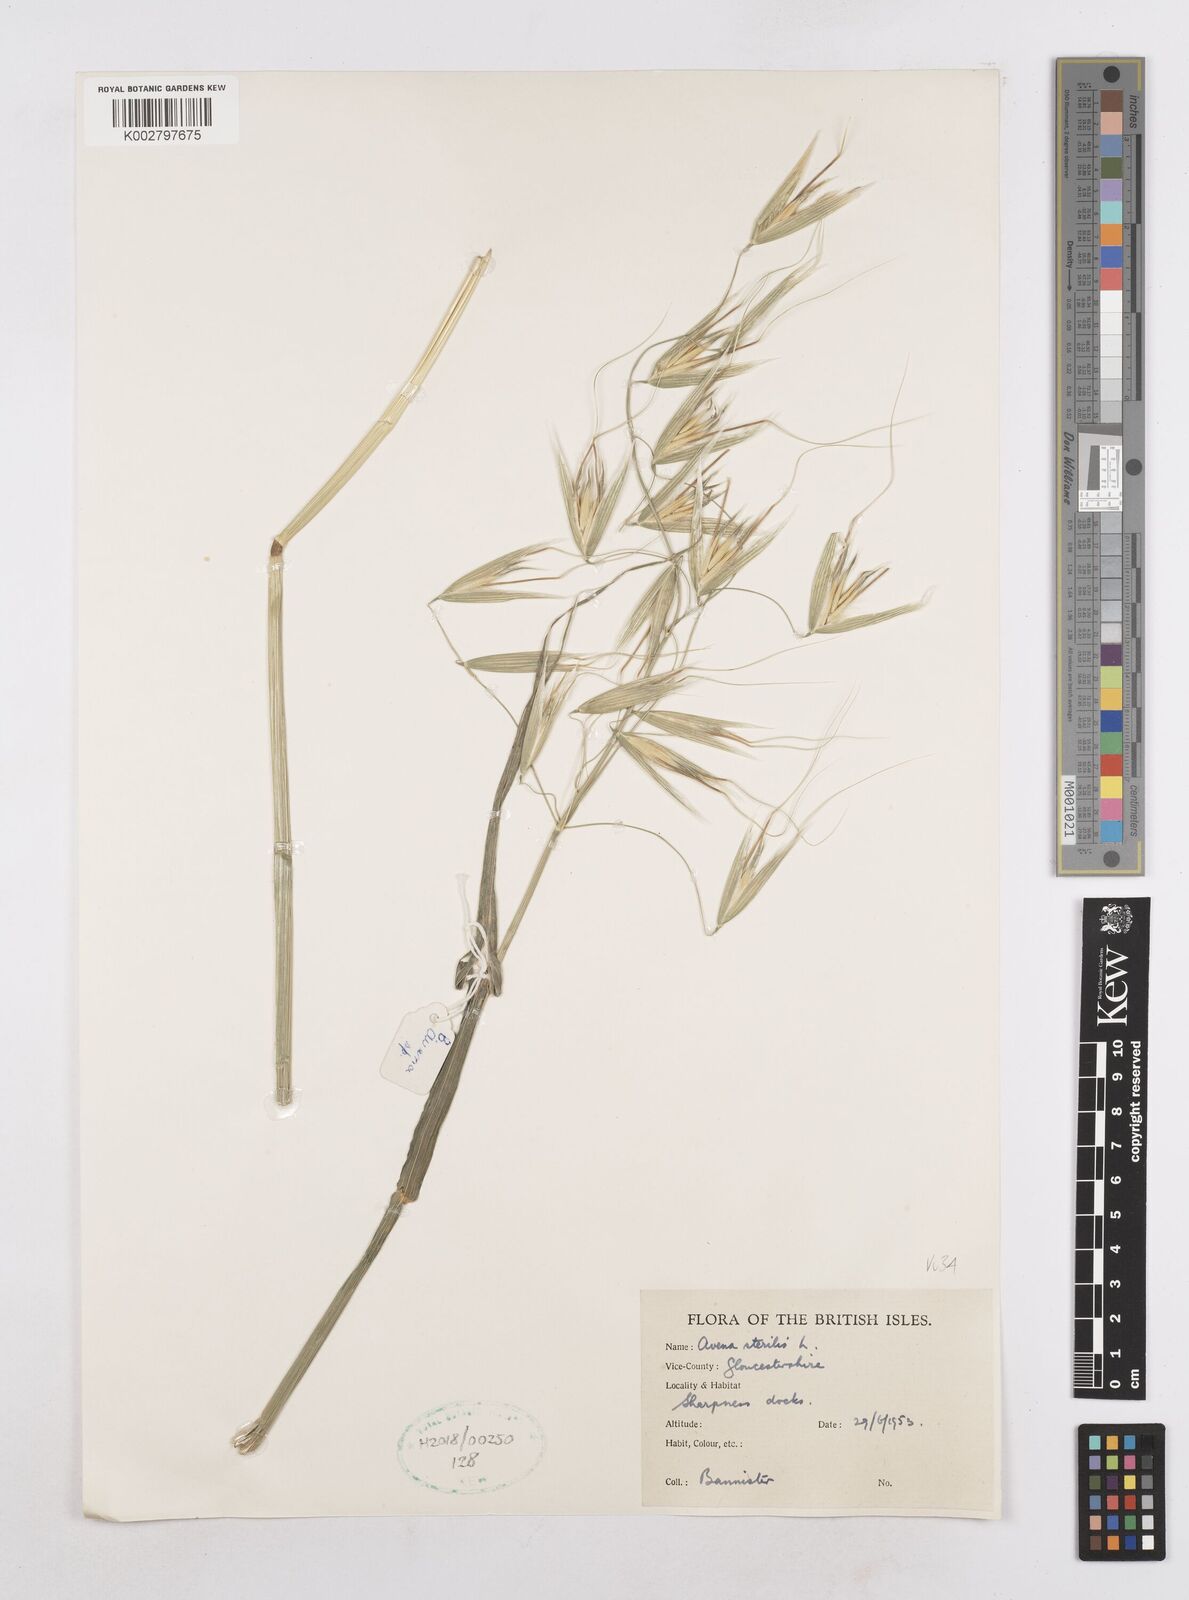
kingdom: Plantae
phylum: Tracheophyta
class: Liliopsida
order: Poales
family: Poaceae
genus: Avena
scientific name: Avena sterilis
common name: Animated oat
